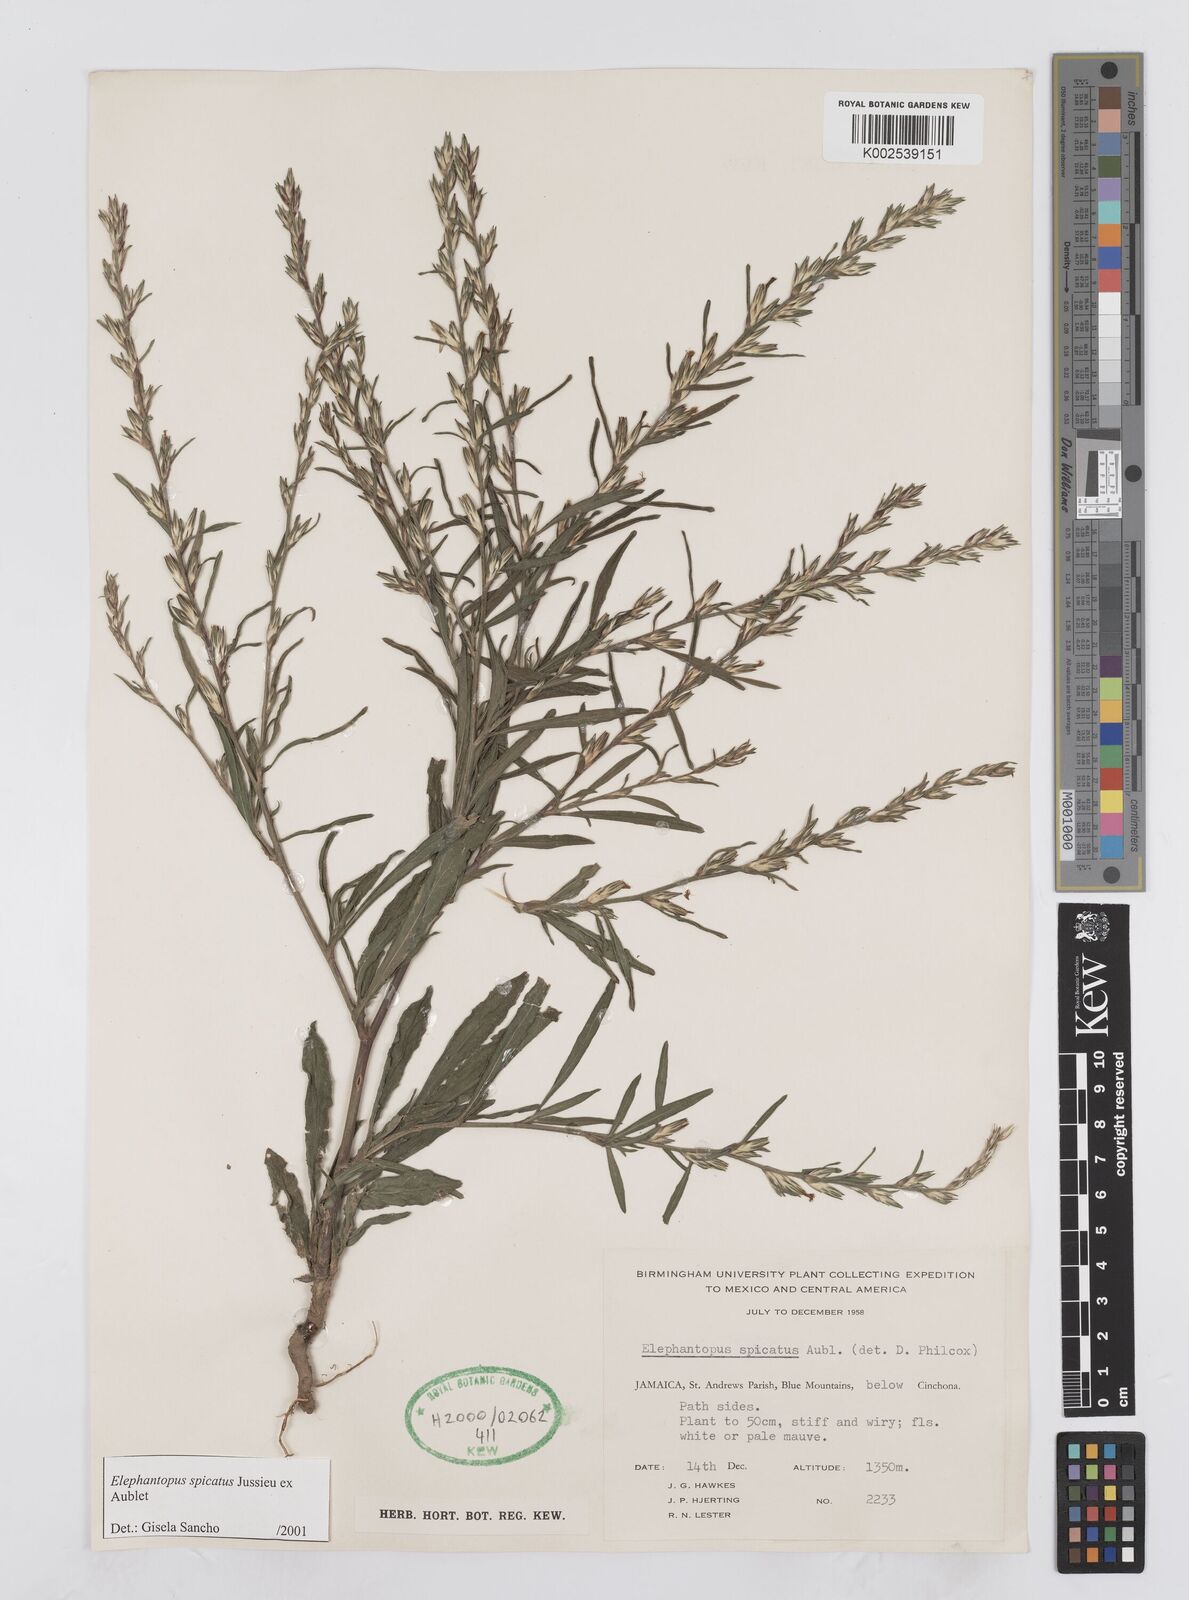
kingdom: Plantae
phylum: Tracheophyta
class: Magnoliopsida
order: Asterales
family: Asteraceae
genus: Pseudelephantopus
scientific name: Pseudelephantopus spicatus
